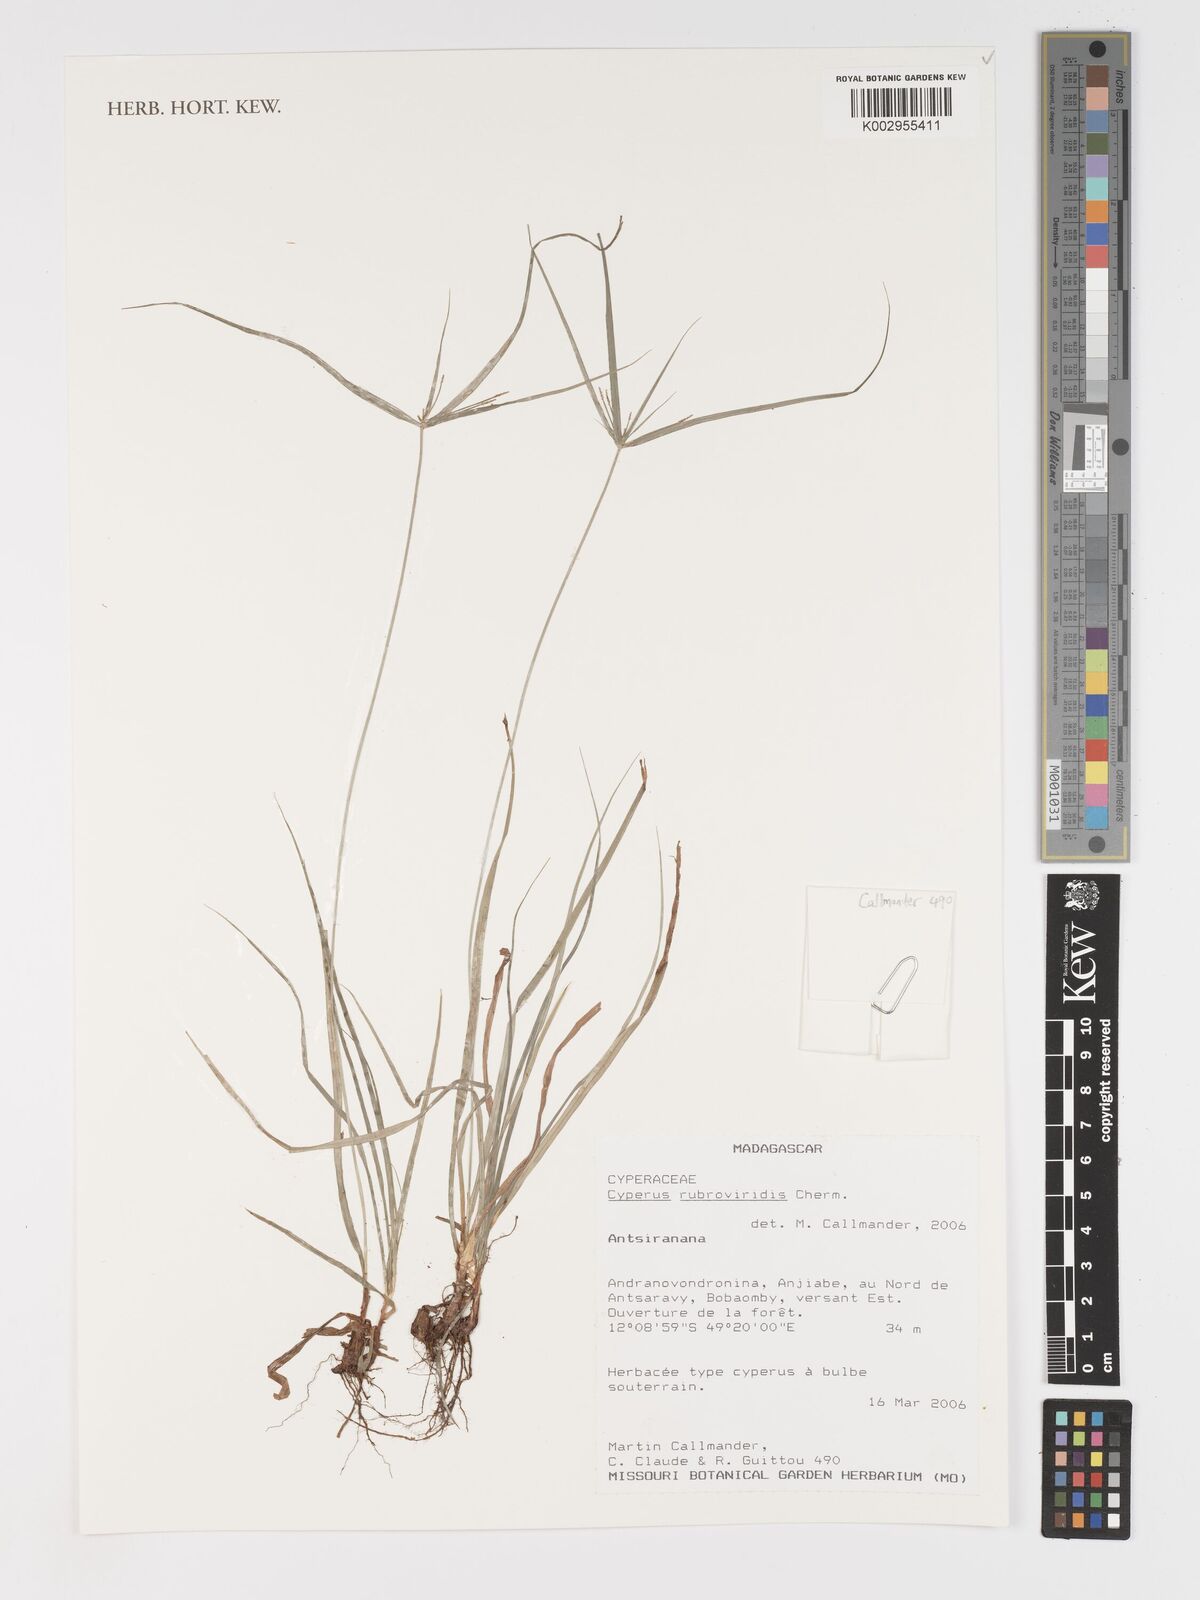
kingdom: Plantae
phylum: Tracheophyta
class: Liliopsida
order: Poales
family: Cyperaceae
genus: Cyperus
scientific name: Cyperus zollingeri
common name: Roadside flatsedge
